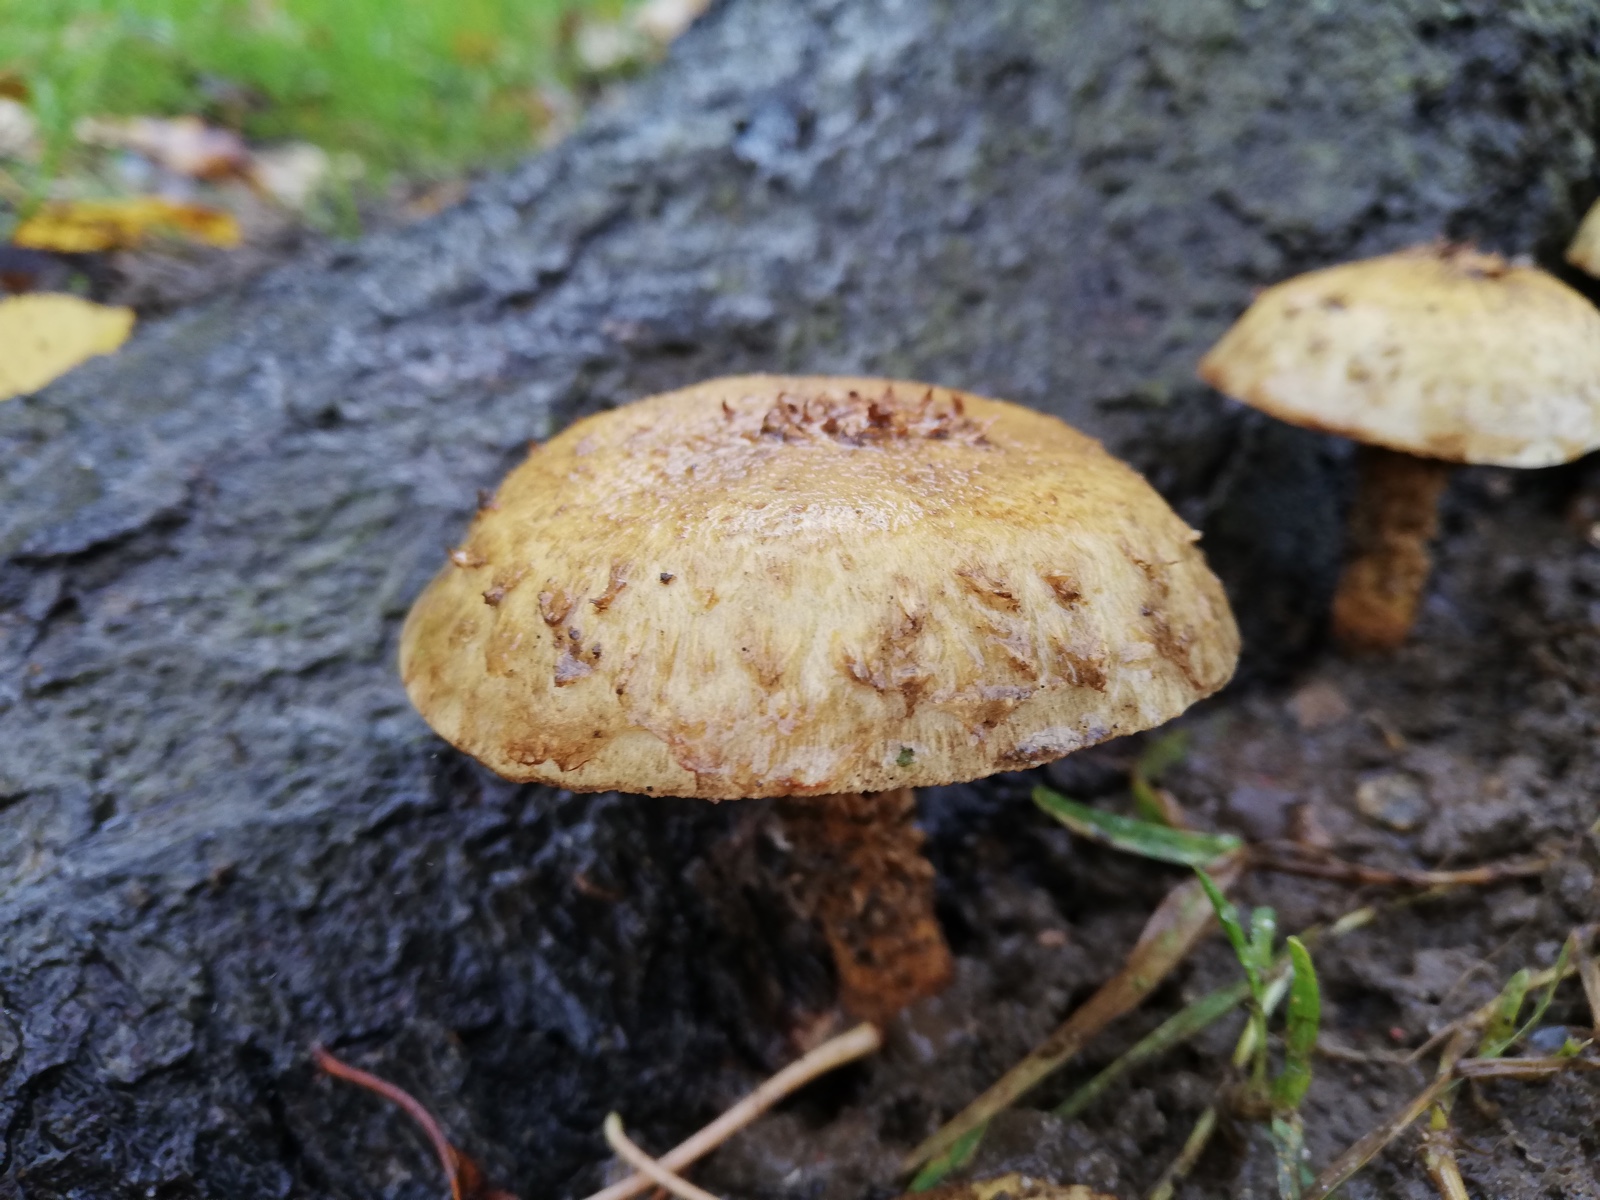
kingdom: Fungi
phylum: Basidiomycota
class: Agaricomycetes
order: Agaricales
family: Strophariaceae
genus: Pholiota
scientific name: Pholiota squarrosa
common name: krumskællet skælhat
